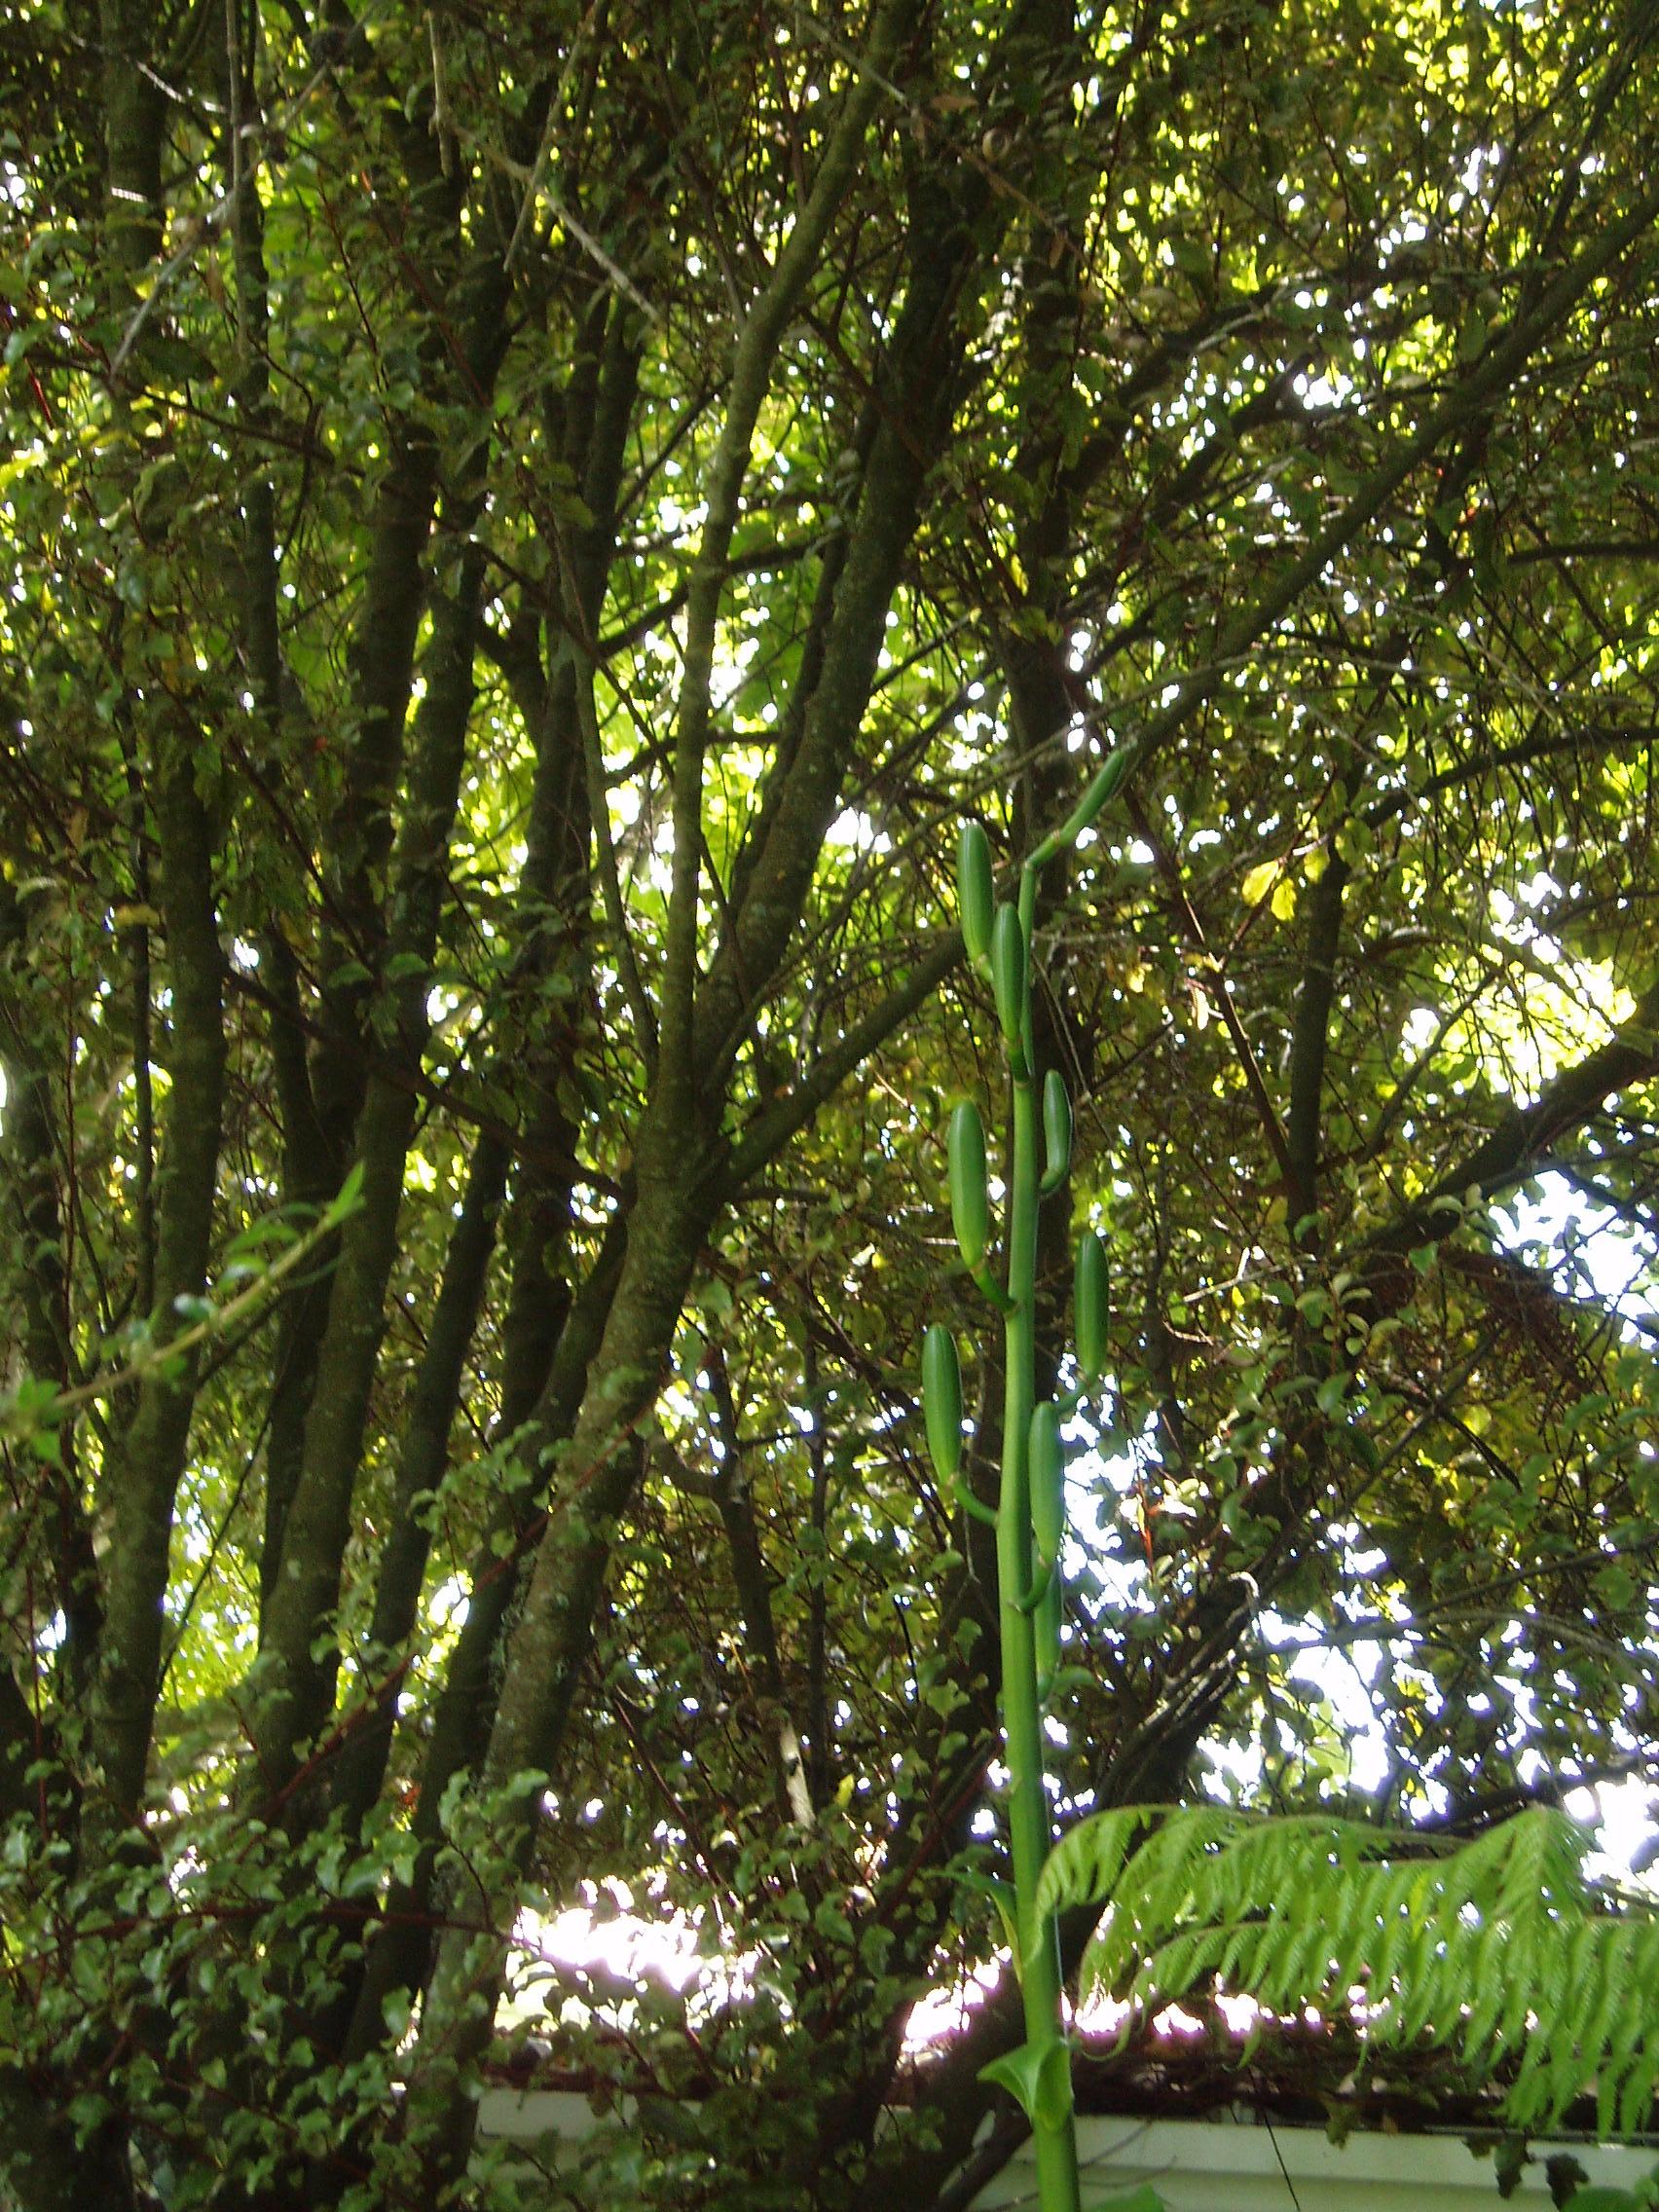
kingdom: Plantae
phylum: Tracheophyta
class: Liliopsida
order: Liliales
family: Liliaceae
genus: Cardiocrinum
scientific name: Cardiocrinum giganteum
